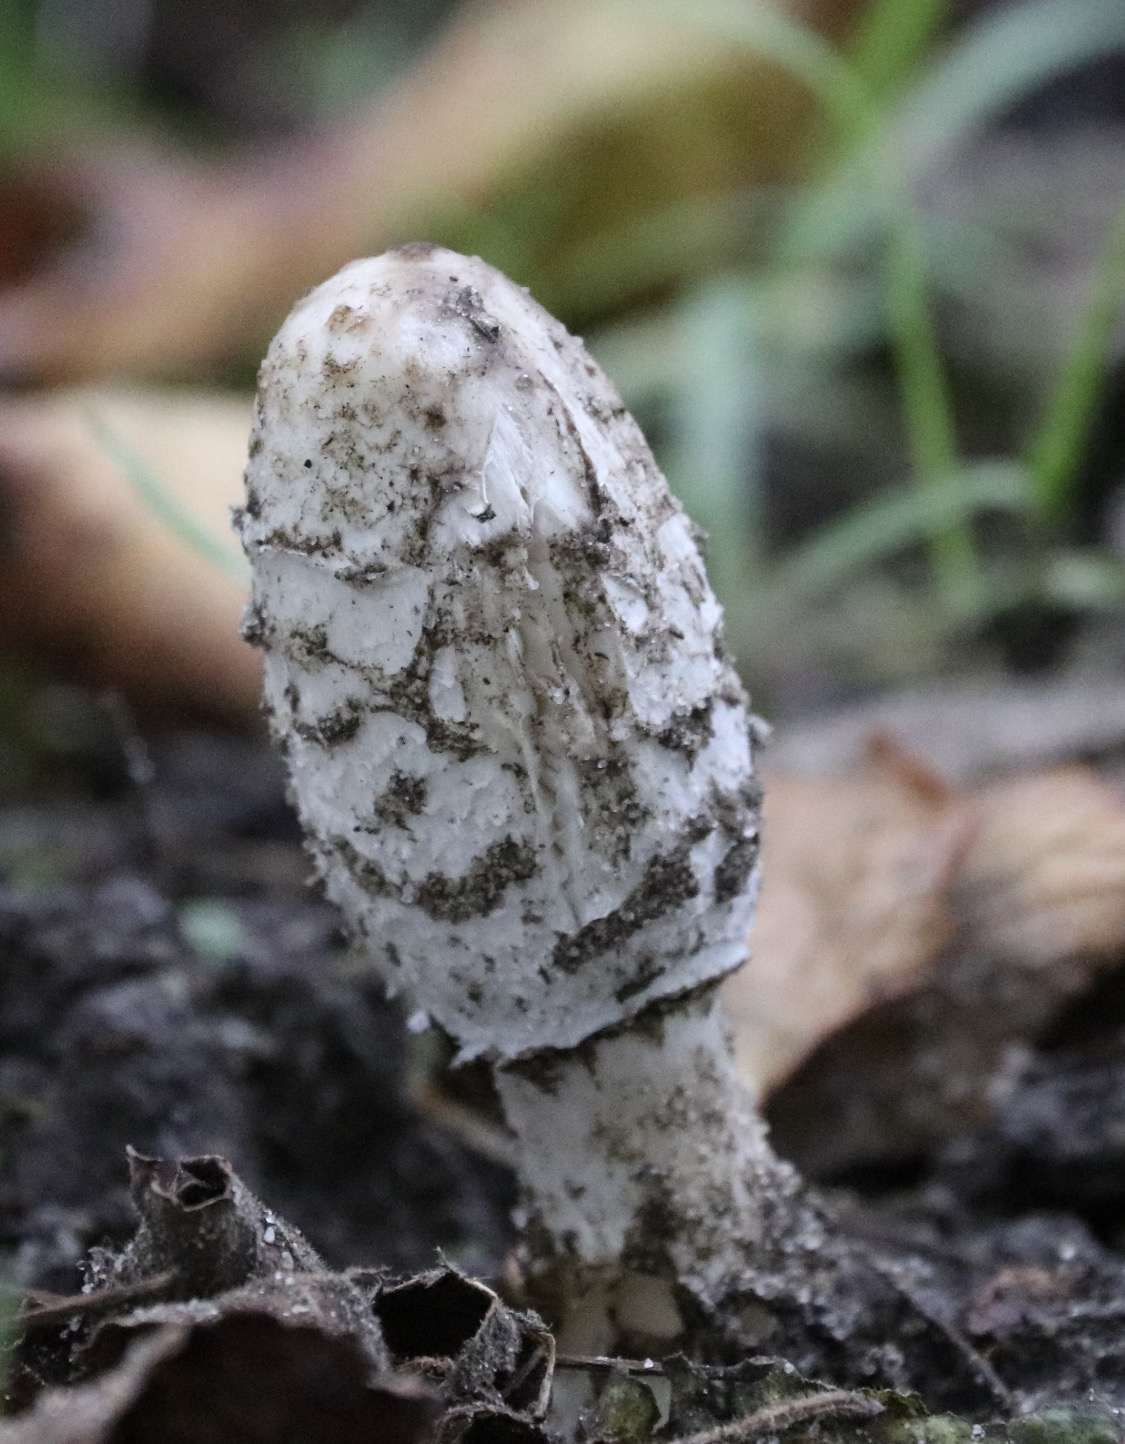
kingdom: Fungi
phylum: Basidiomycota
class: Agaricomycetes
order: Agaricales
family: Agaricaceae
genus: Coprinus
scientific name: Coprinus comatus
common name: stor parykhat
